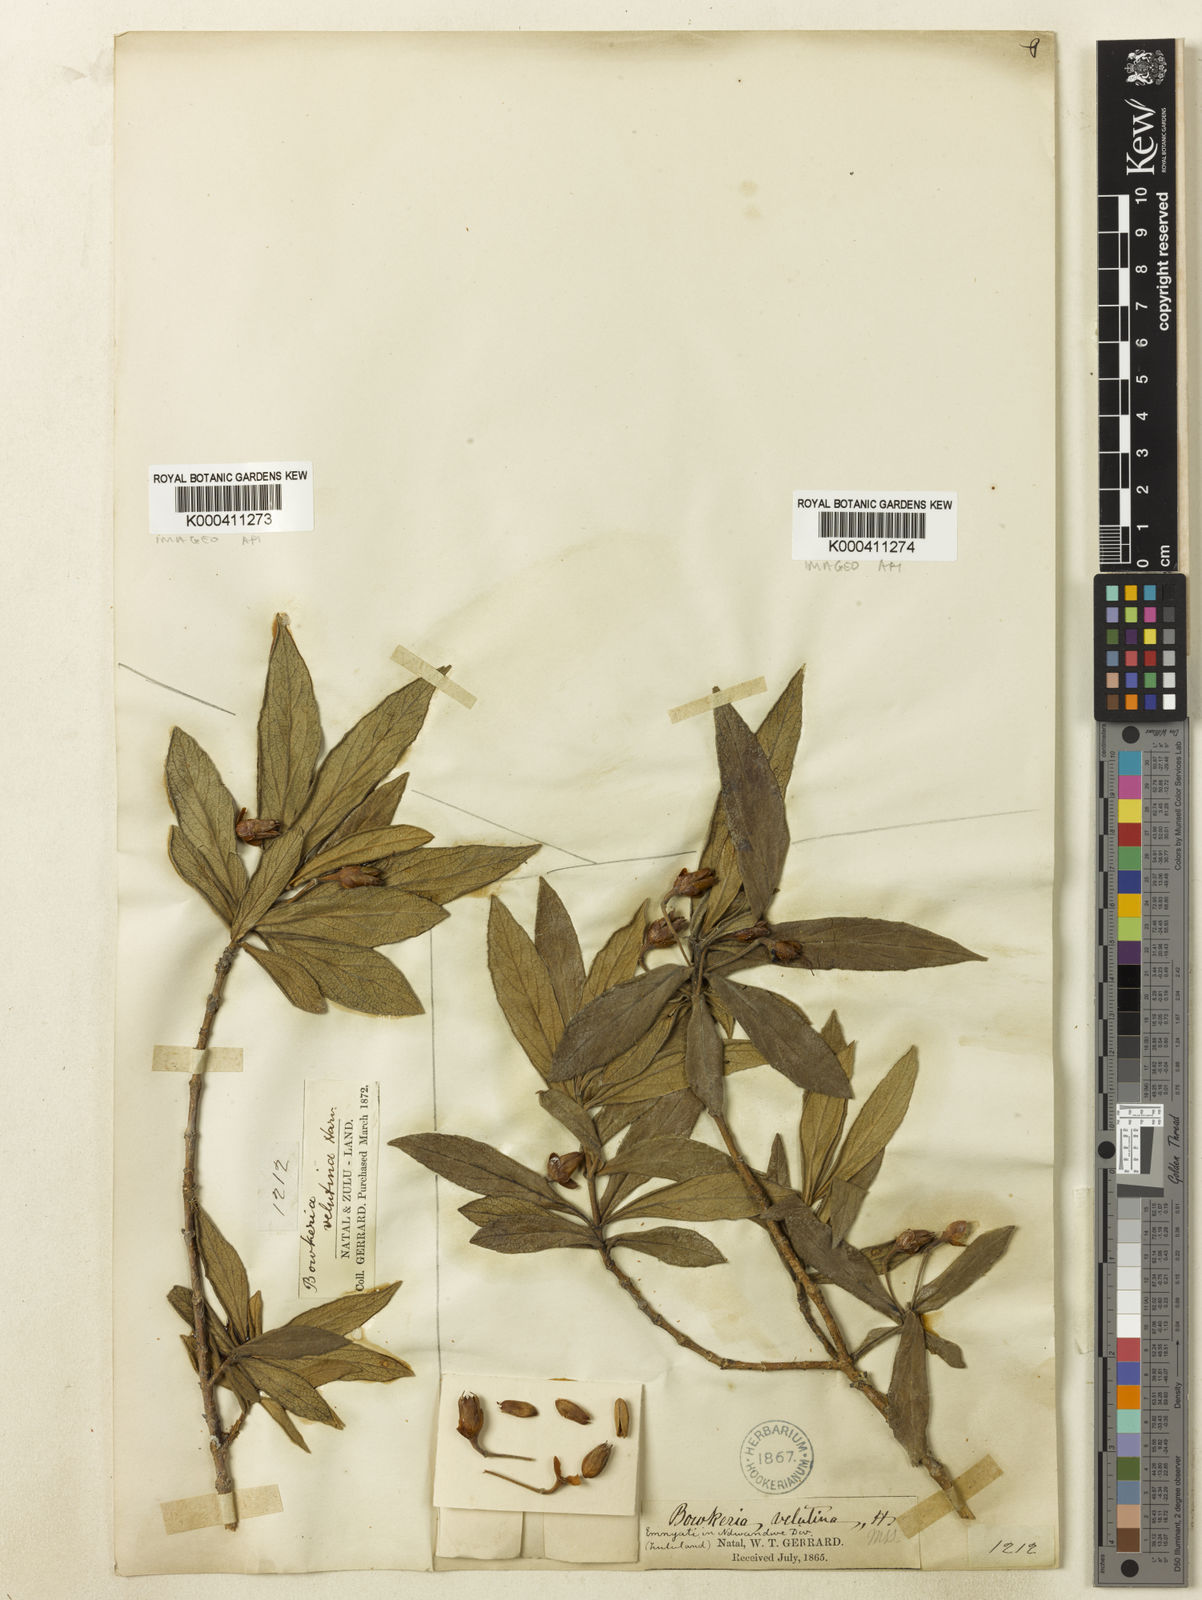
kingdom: Plantae
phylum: Tracheophyta
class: Magnoliopsida
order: Lamiales
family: Stilbaceae
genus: Bowkeria
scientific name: Bowkeria
